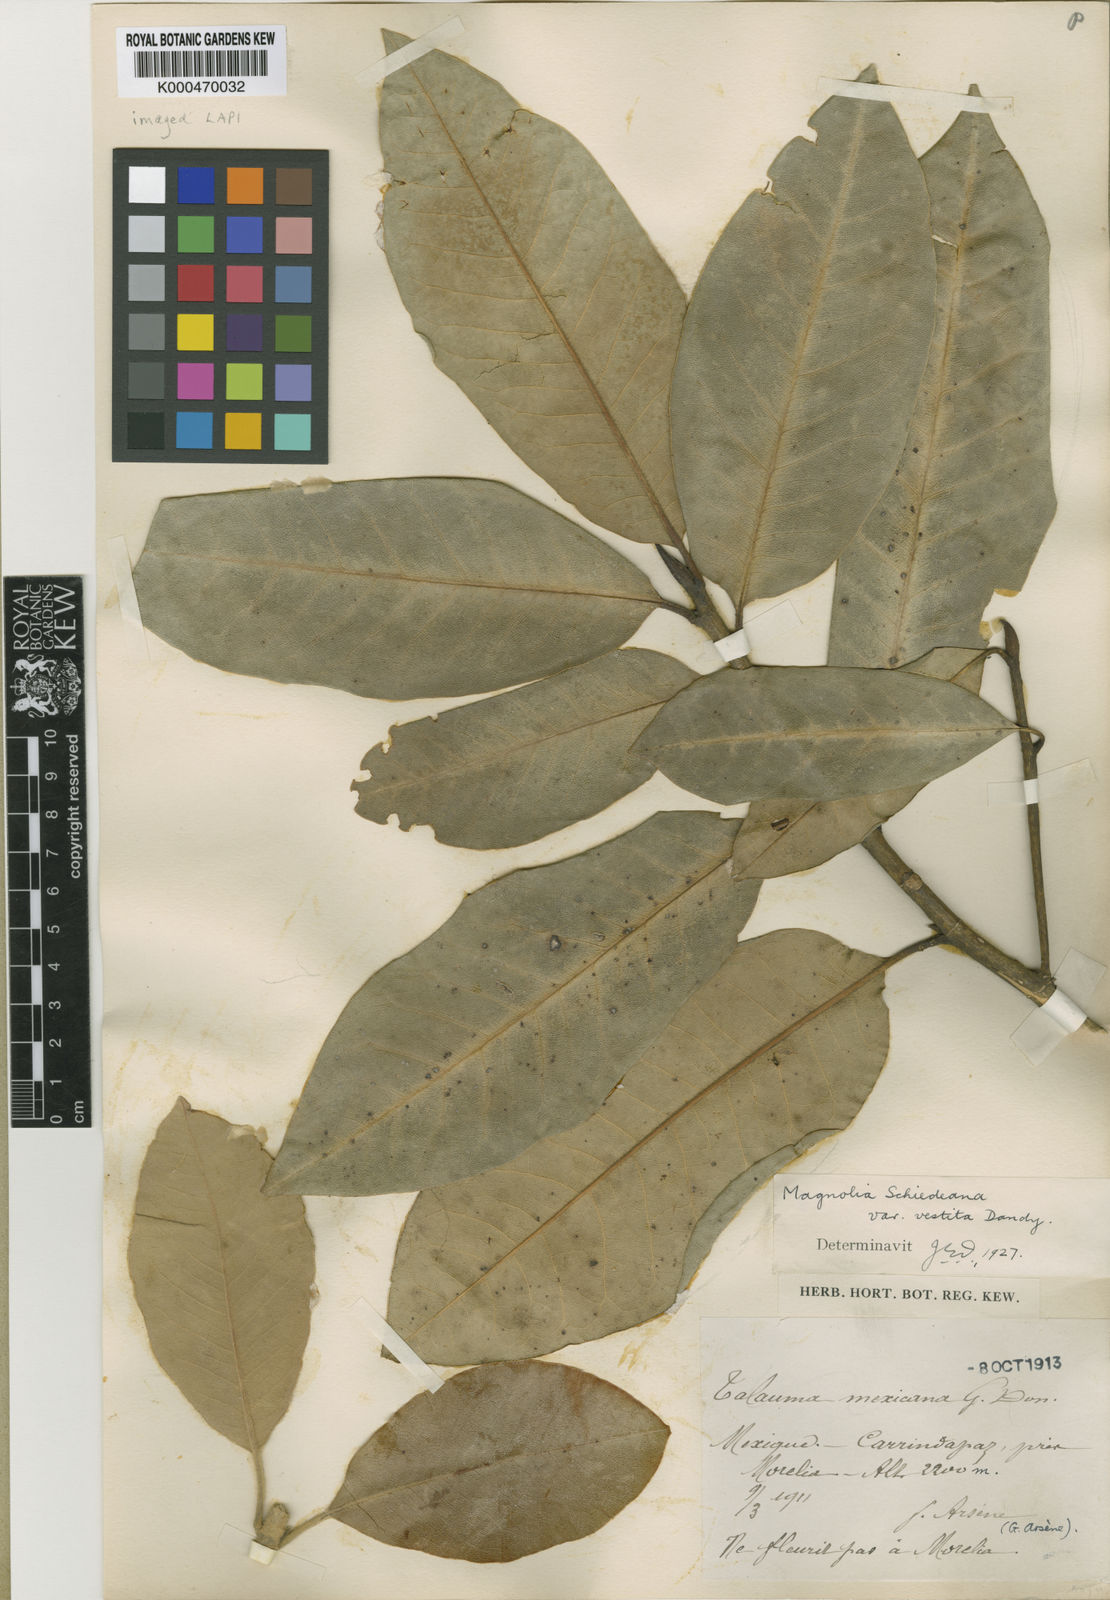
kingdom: Plantae
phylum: Tracheophyta
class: Magnoliopsida
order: Magnoliales
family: Magnoliaceae
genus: Magnolia
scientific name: Magnolia schiedeana
